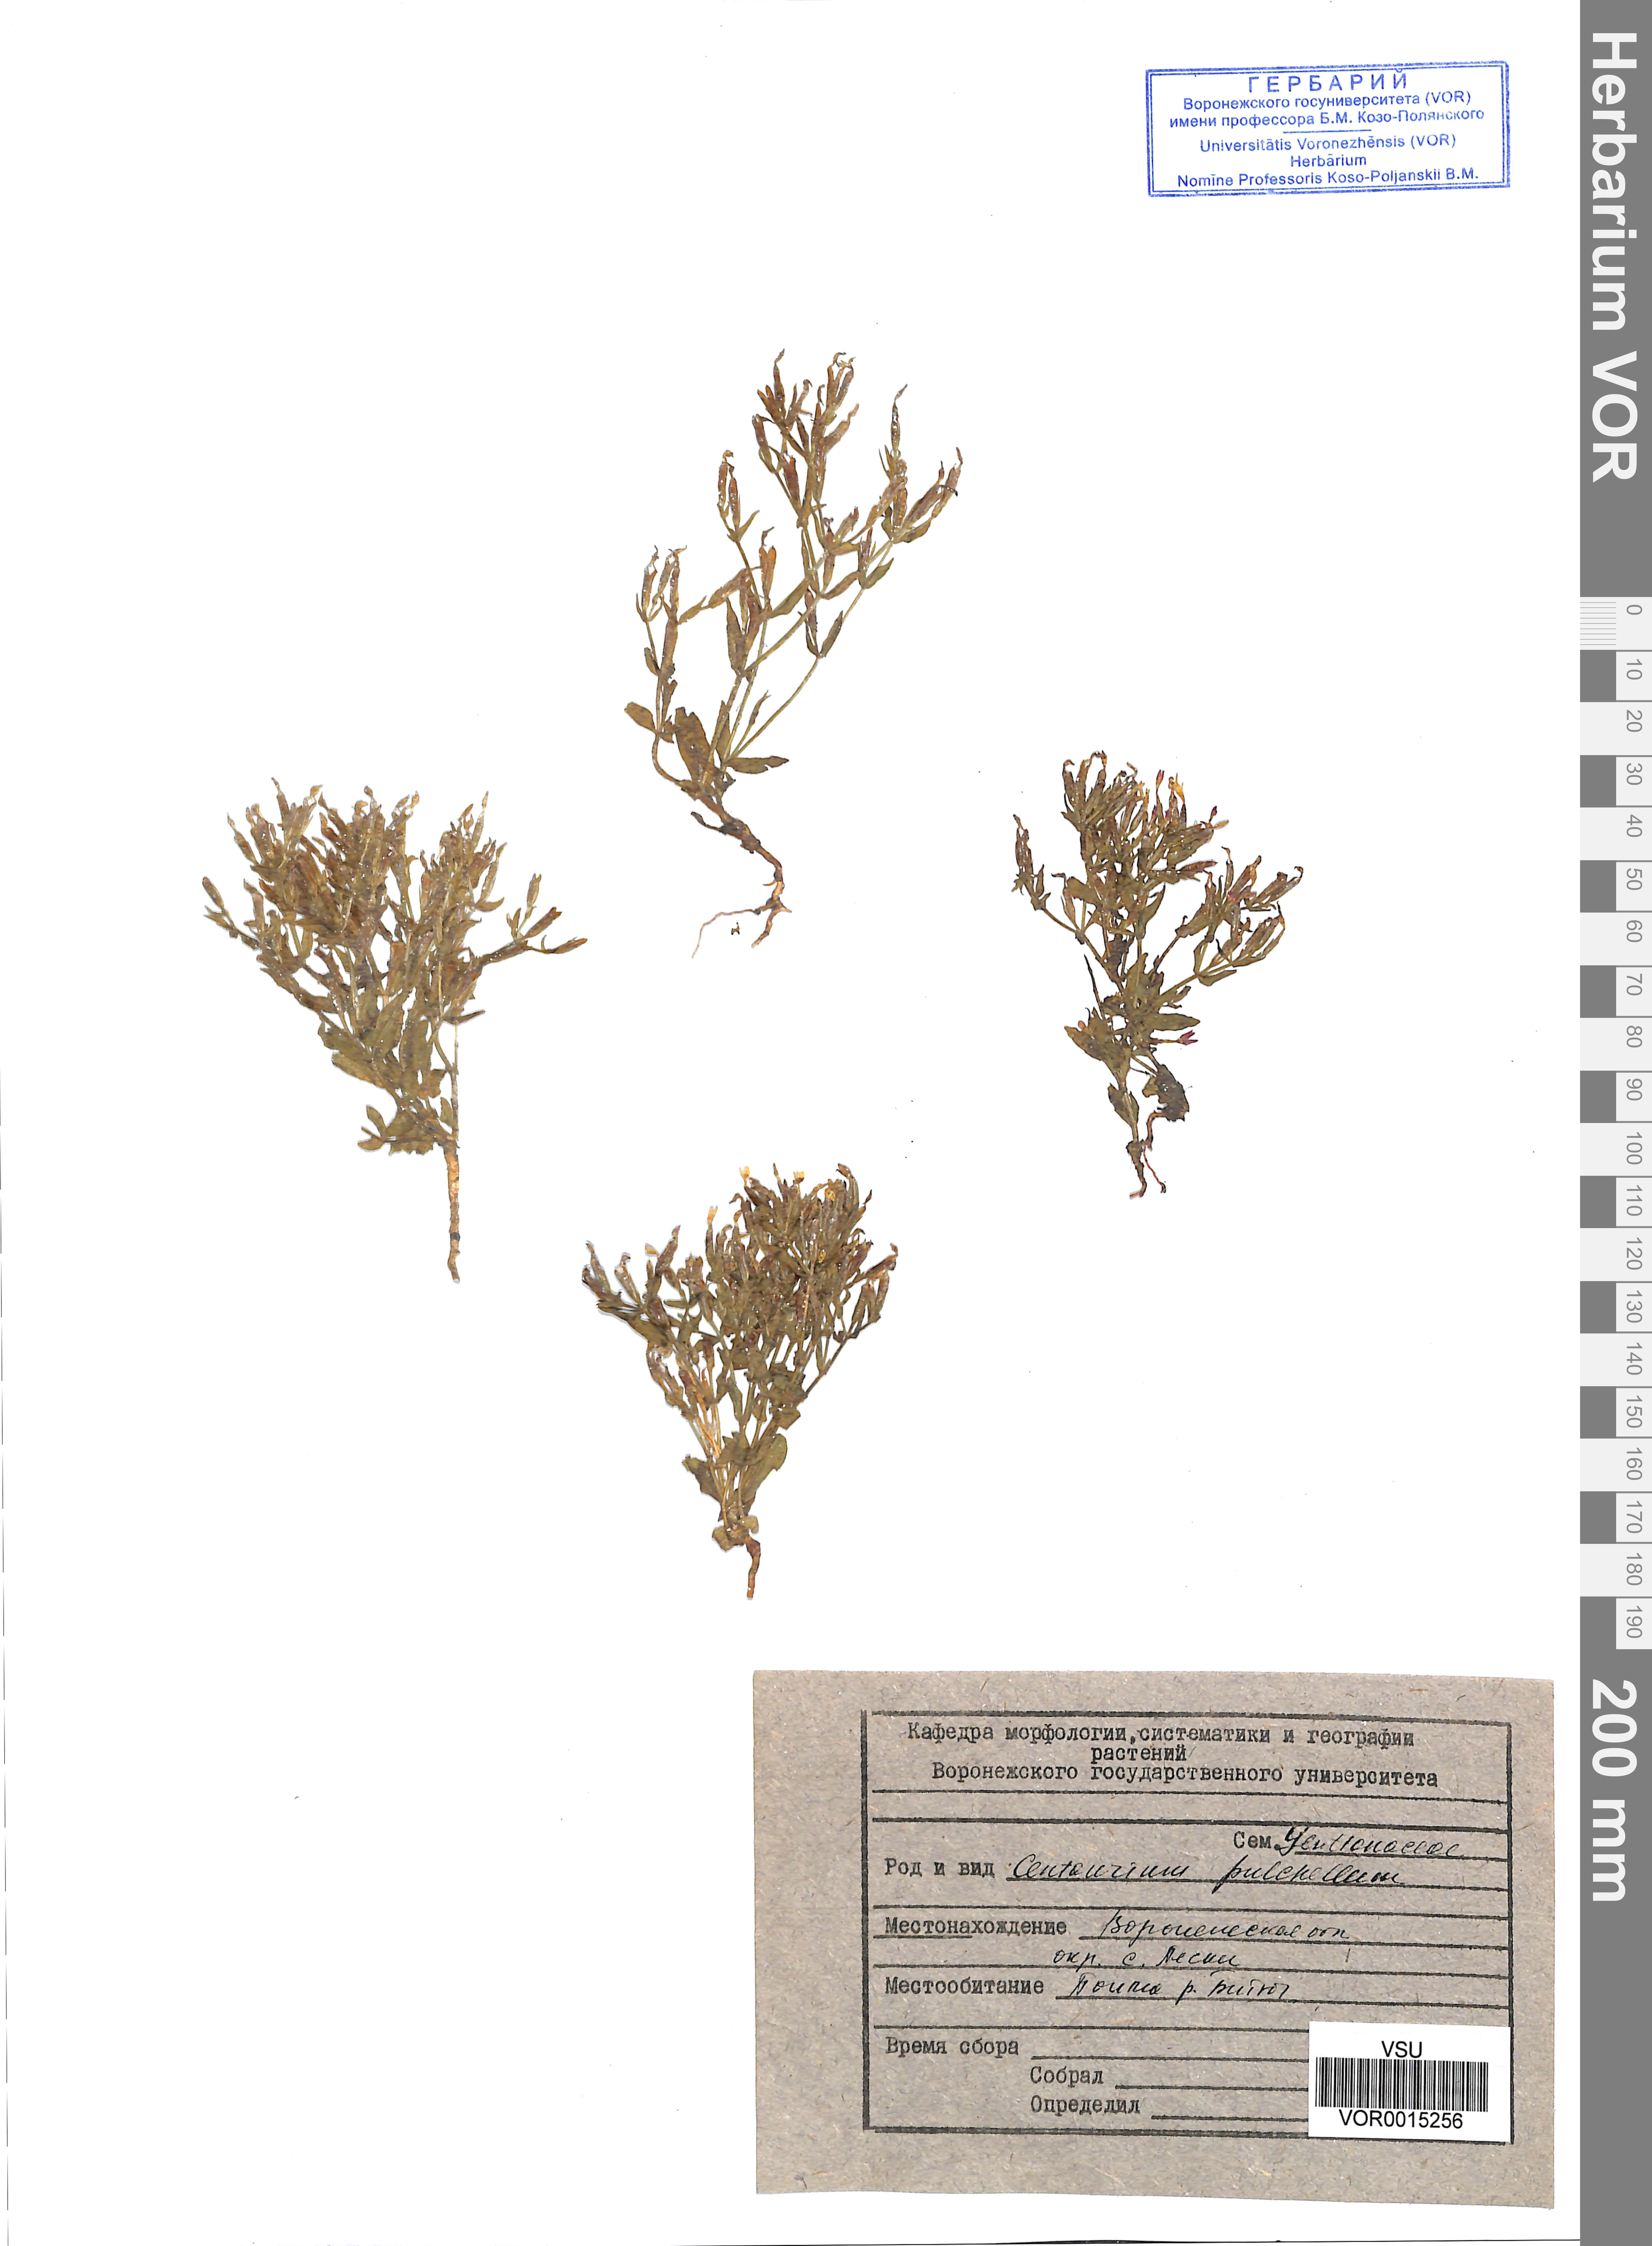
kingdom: Plantae
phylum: Tracheophyta
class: Magnoliopsida
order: Gentianales
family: Gentianaceae
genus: Centaurium
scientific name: Centaurium pulchellum
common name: Lesser centaury
